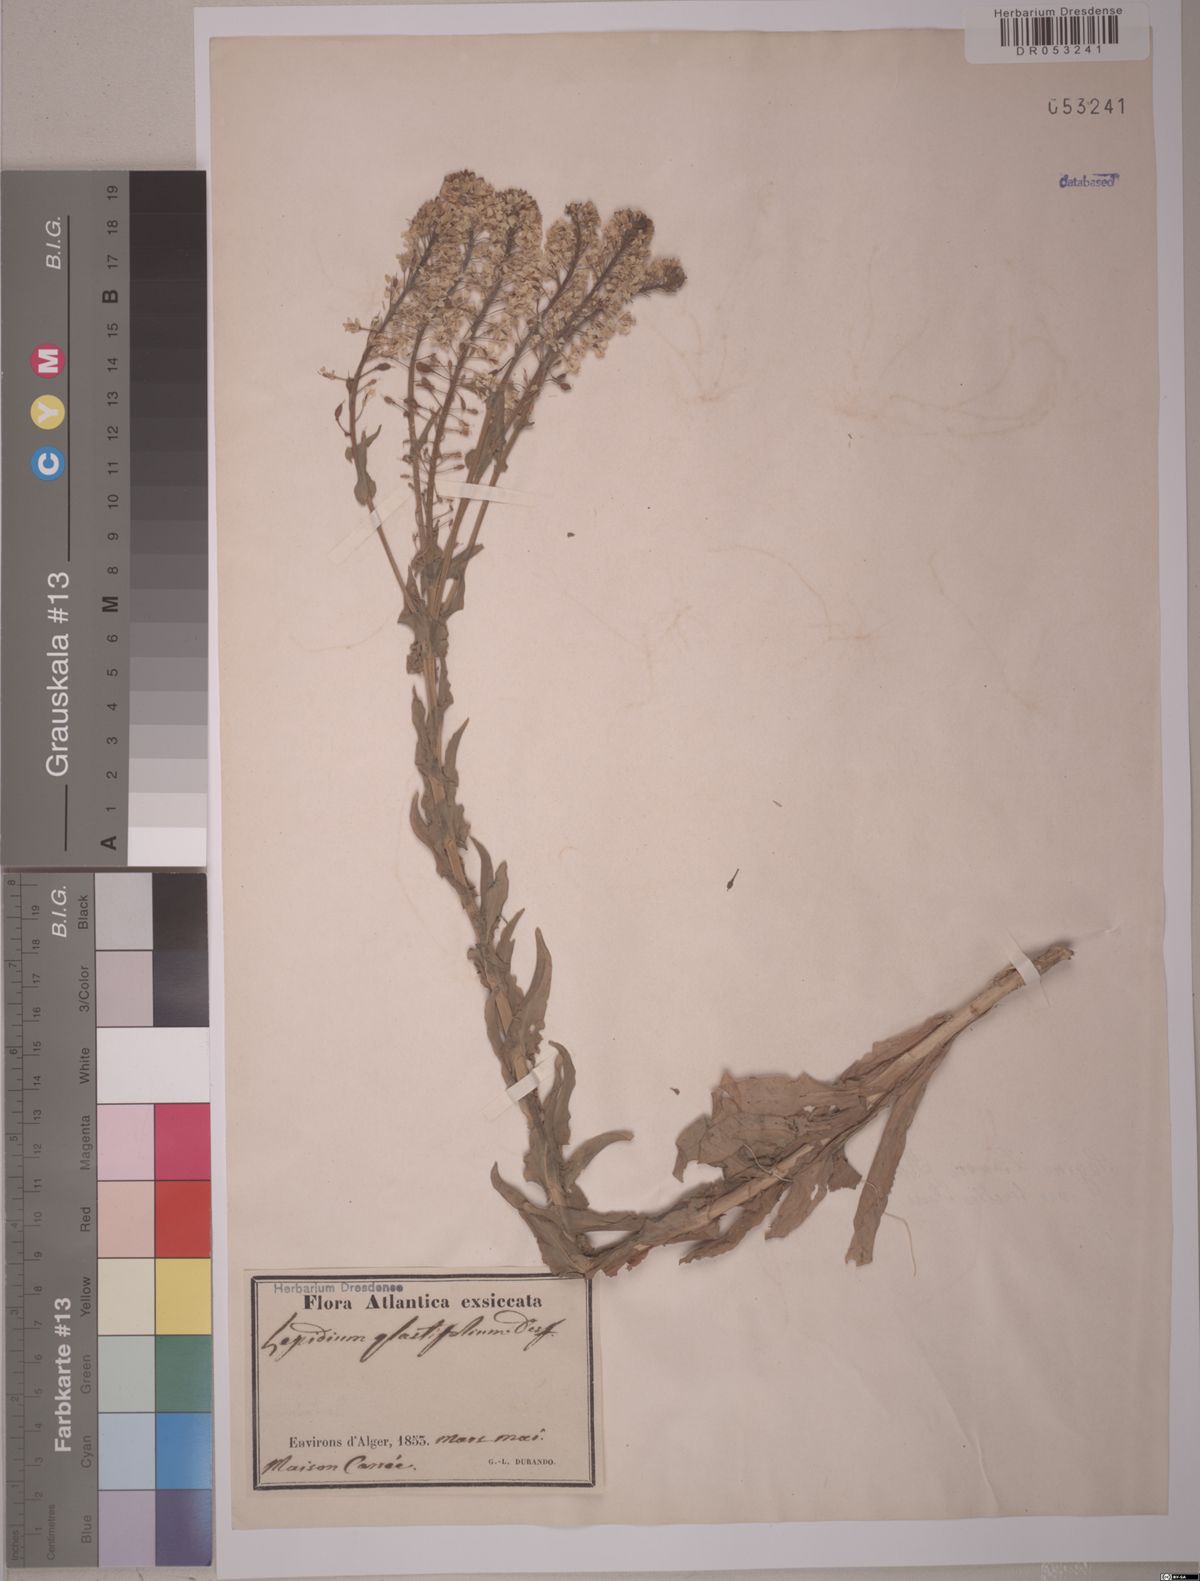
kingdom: Plantae
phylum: Tracheophyta
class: Magnoliopsida
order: Brassicales
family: Brassicaceae
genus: Lepidium
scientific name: Lepidium glastifolium
